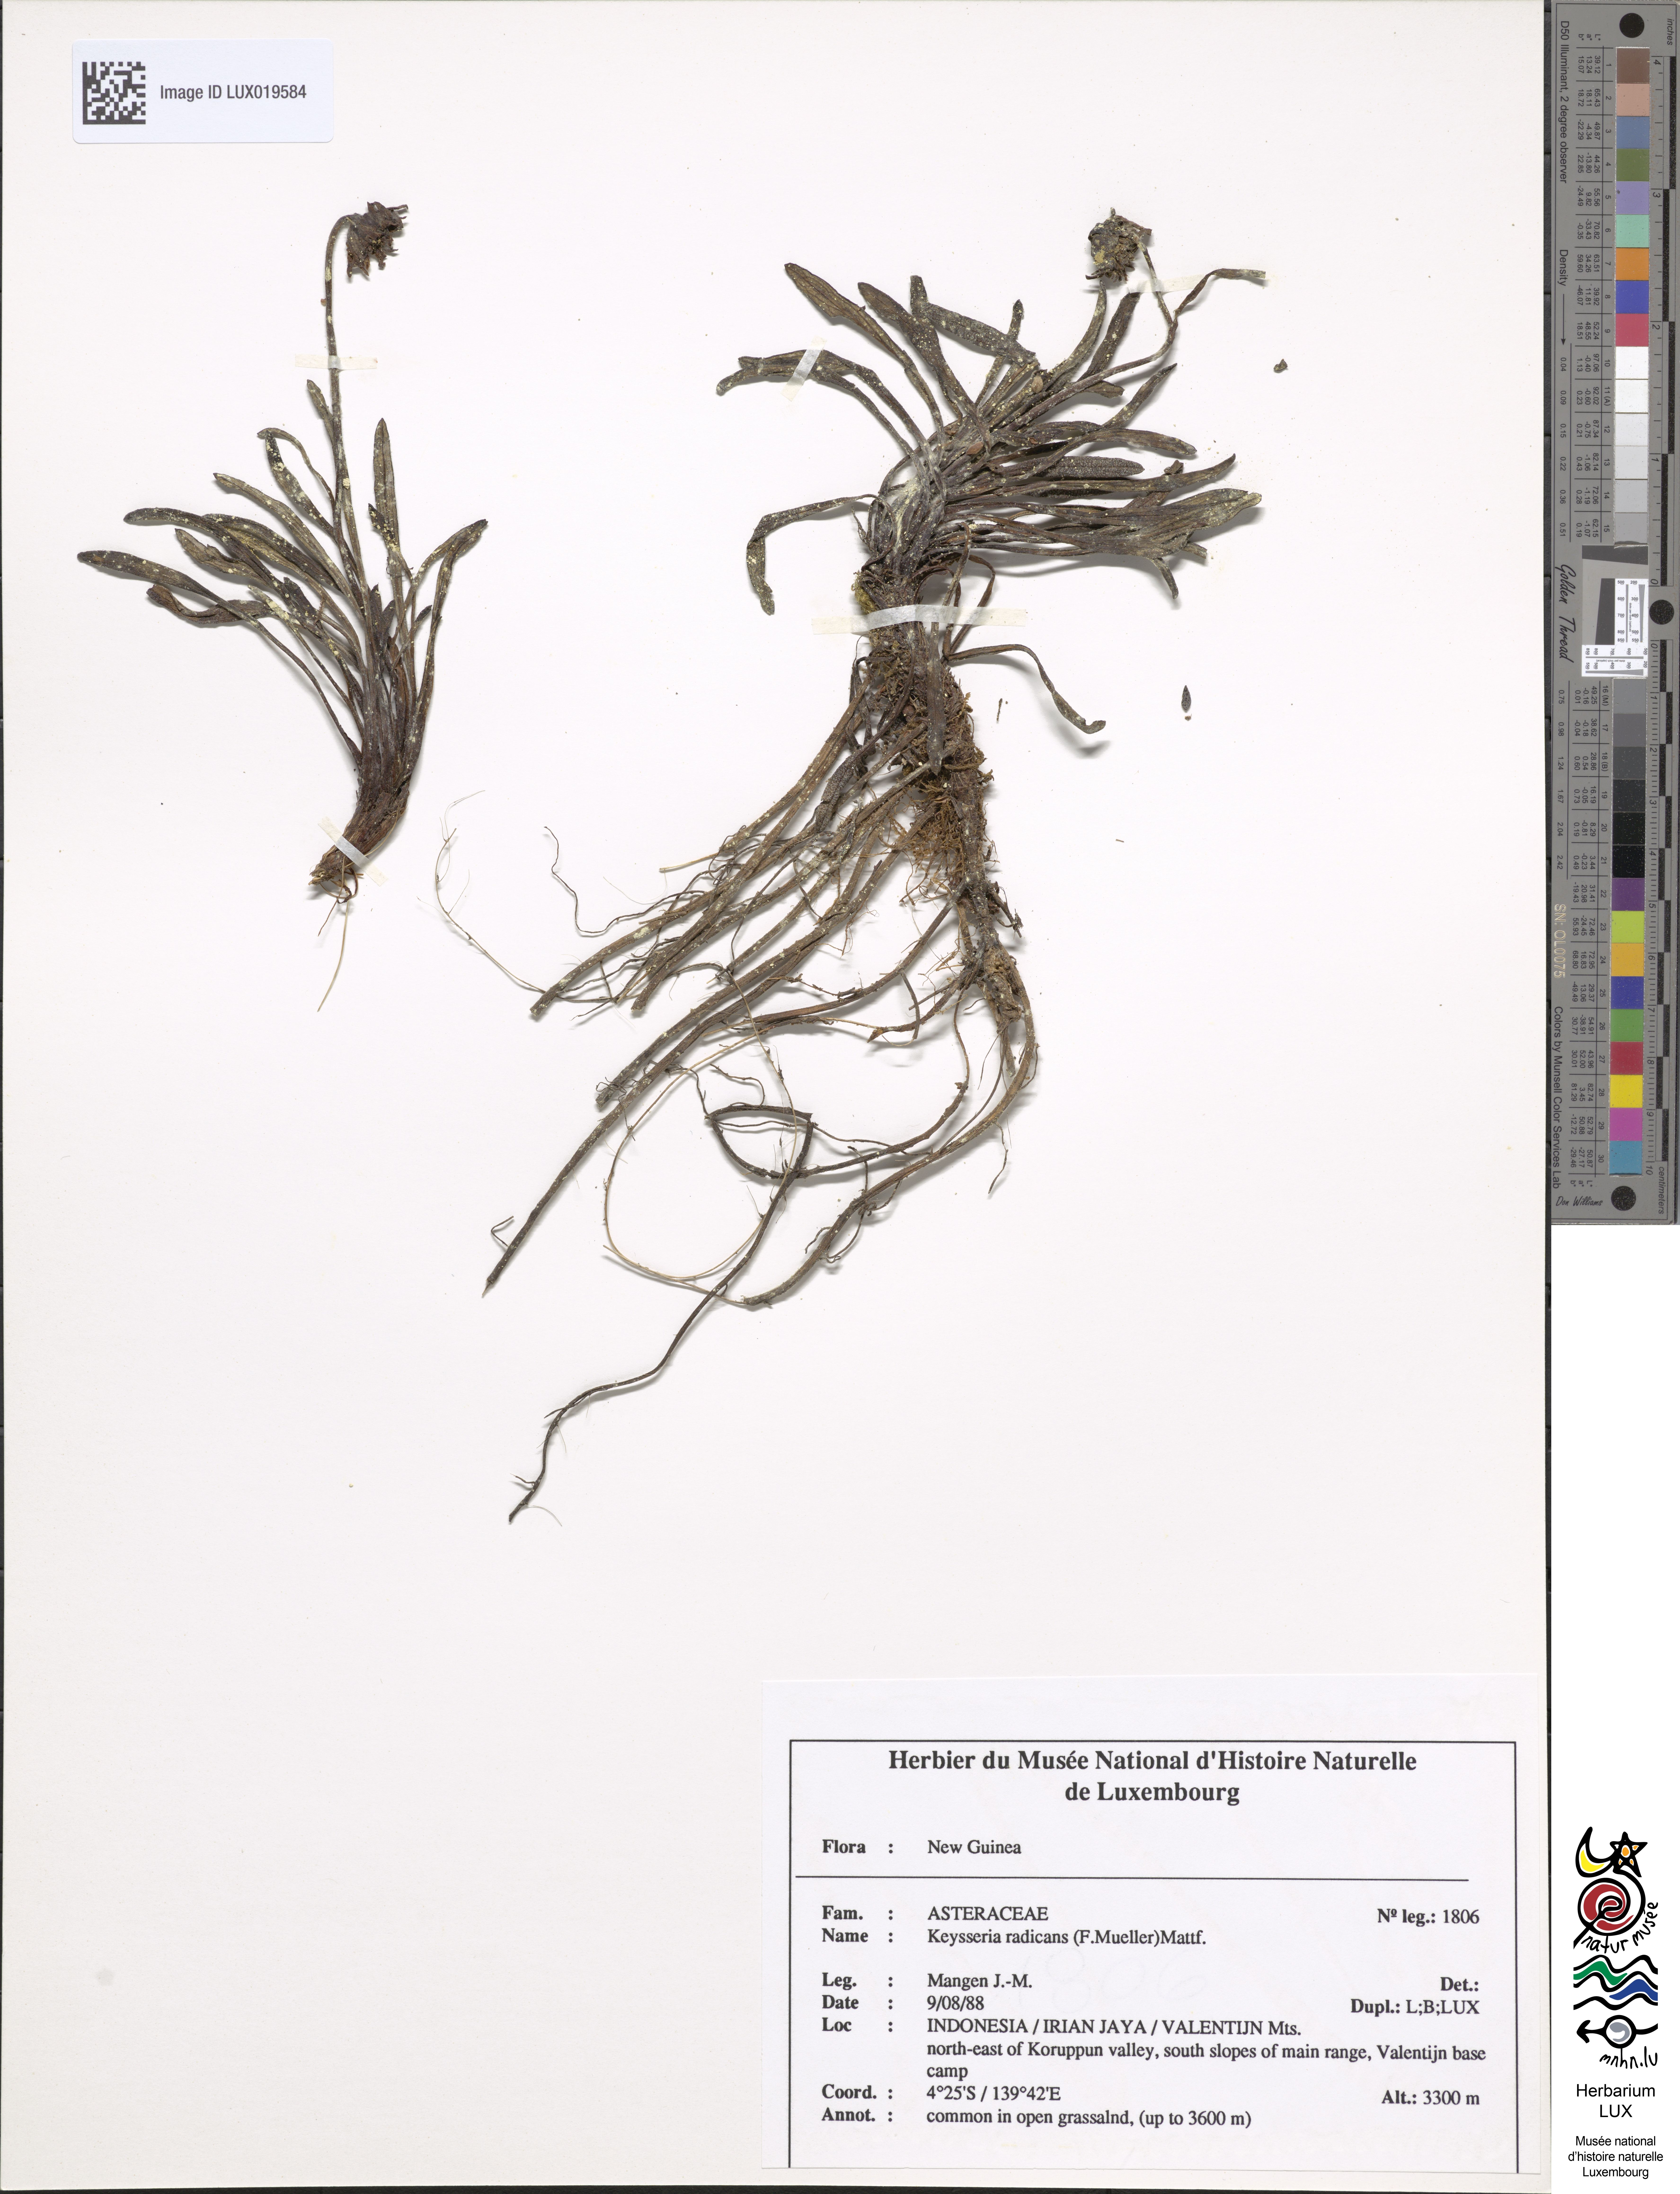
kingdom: Plantae
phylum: Tracheophyta
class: Magnoliopsida
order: Asterales
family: Asteraceae
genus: Keysseria
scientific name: Keysseria radicans
